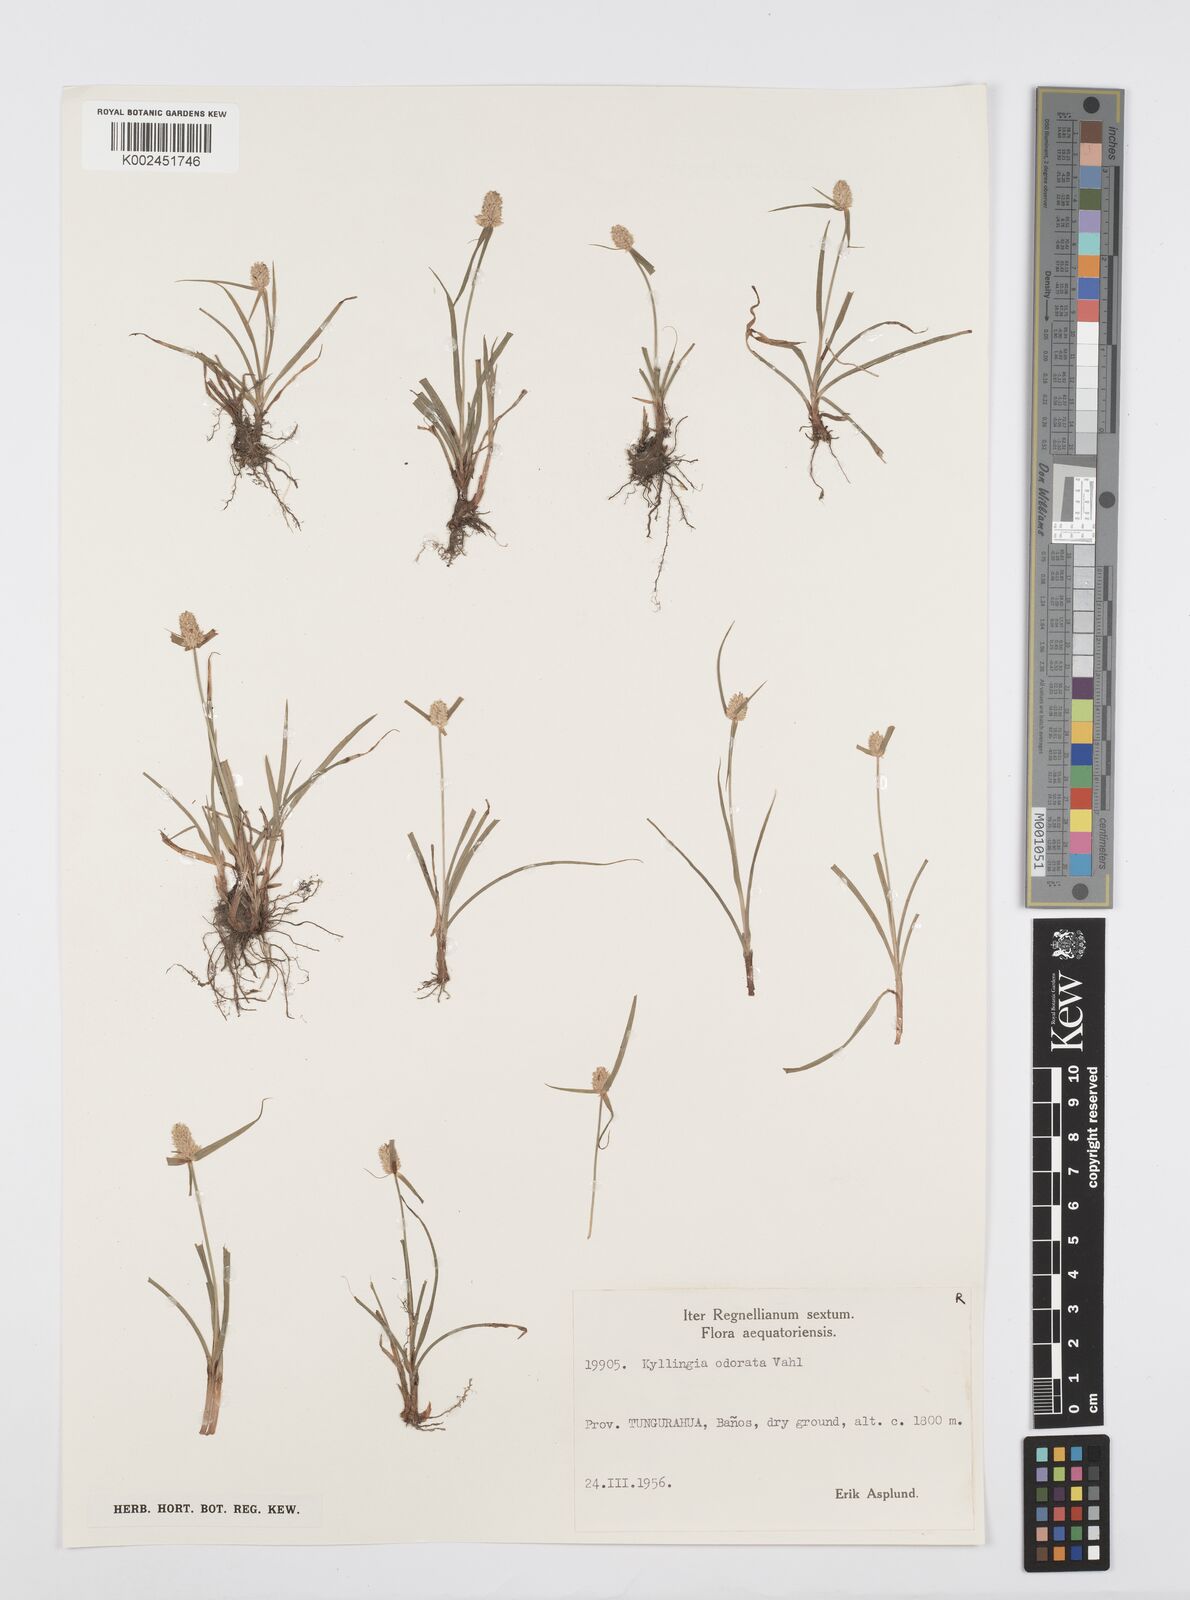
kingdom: Plantae
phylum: Tracheophyta
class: Liliopsida
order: Poales
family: Cyperaceae
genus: Cyperus
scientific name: Cyperus
